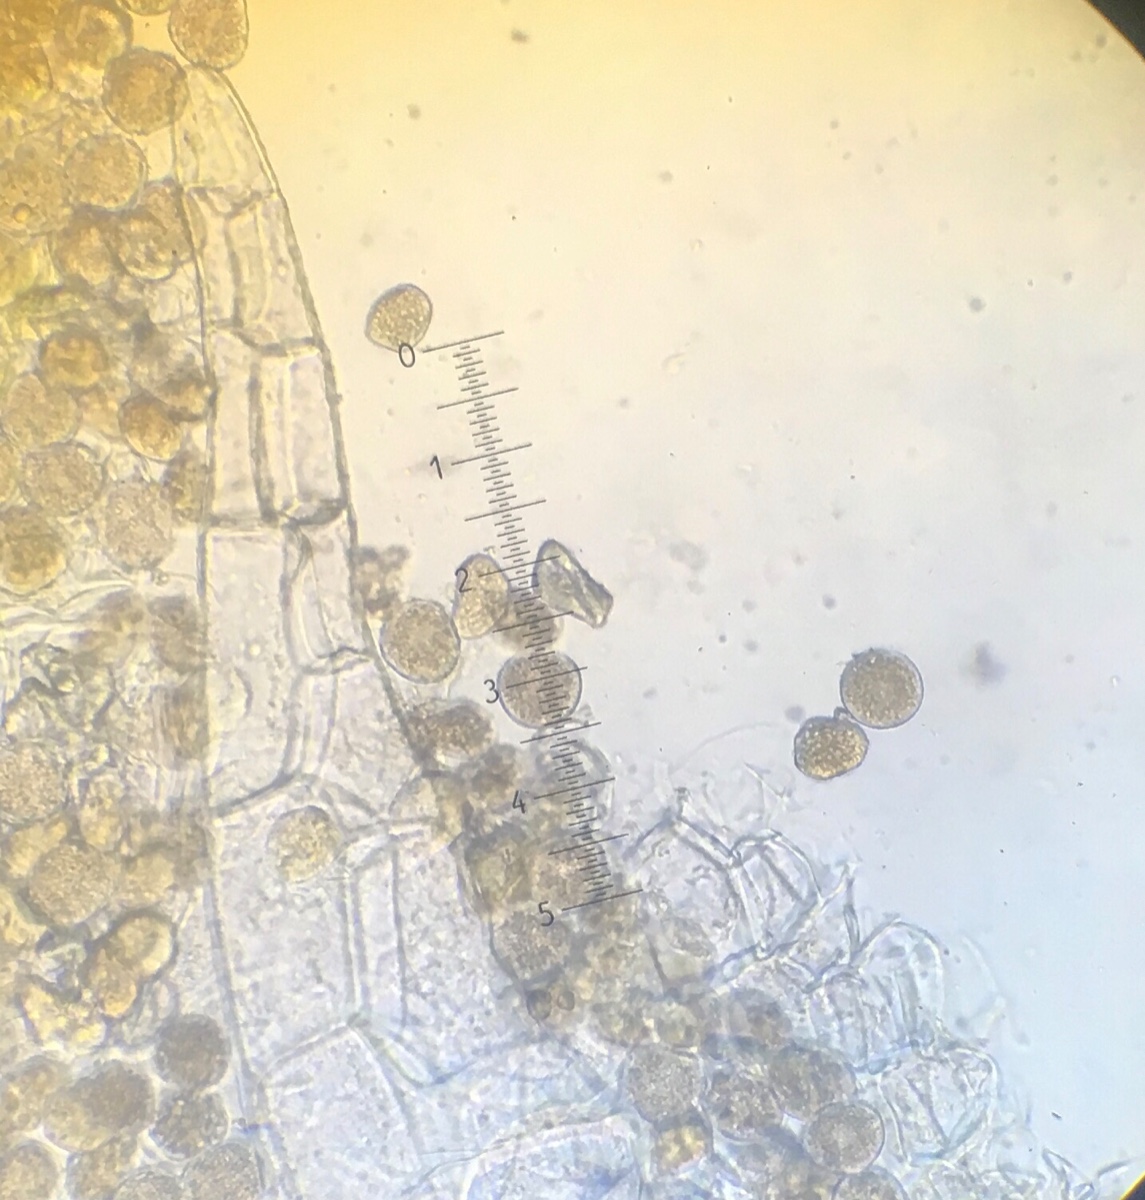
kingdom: Fungi
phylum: Basidiomycota
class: Pucciniomycetes
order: Pucciniales
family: Pucciniaceae
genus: Puccinia
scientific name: Puccinia lapsanae
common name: Nipplewort rust
